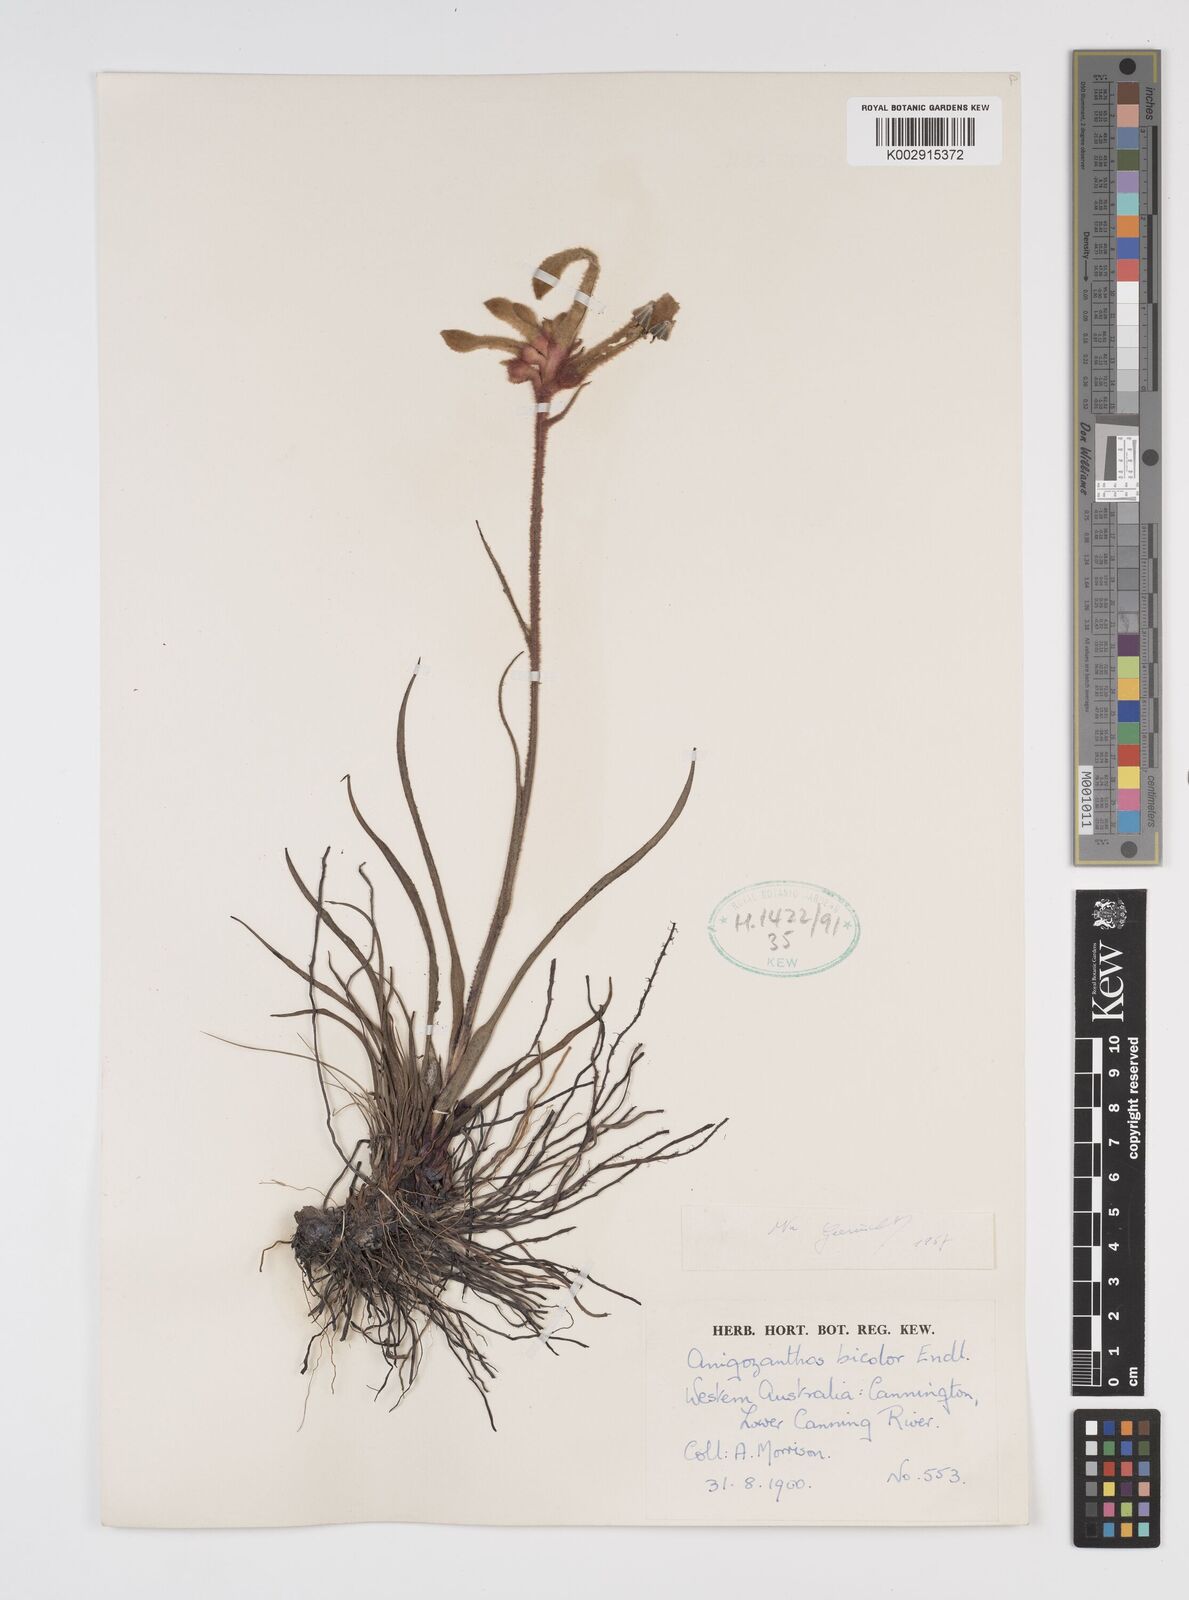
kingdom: Plantae
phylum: Tracheophyta
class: Liliopsida
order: Commelinales
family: Haemodoraceae
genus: Anigozanthos
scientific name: Anigozanthos bicolor
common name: Little kangaroo-paw
